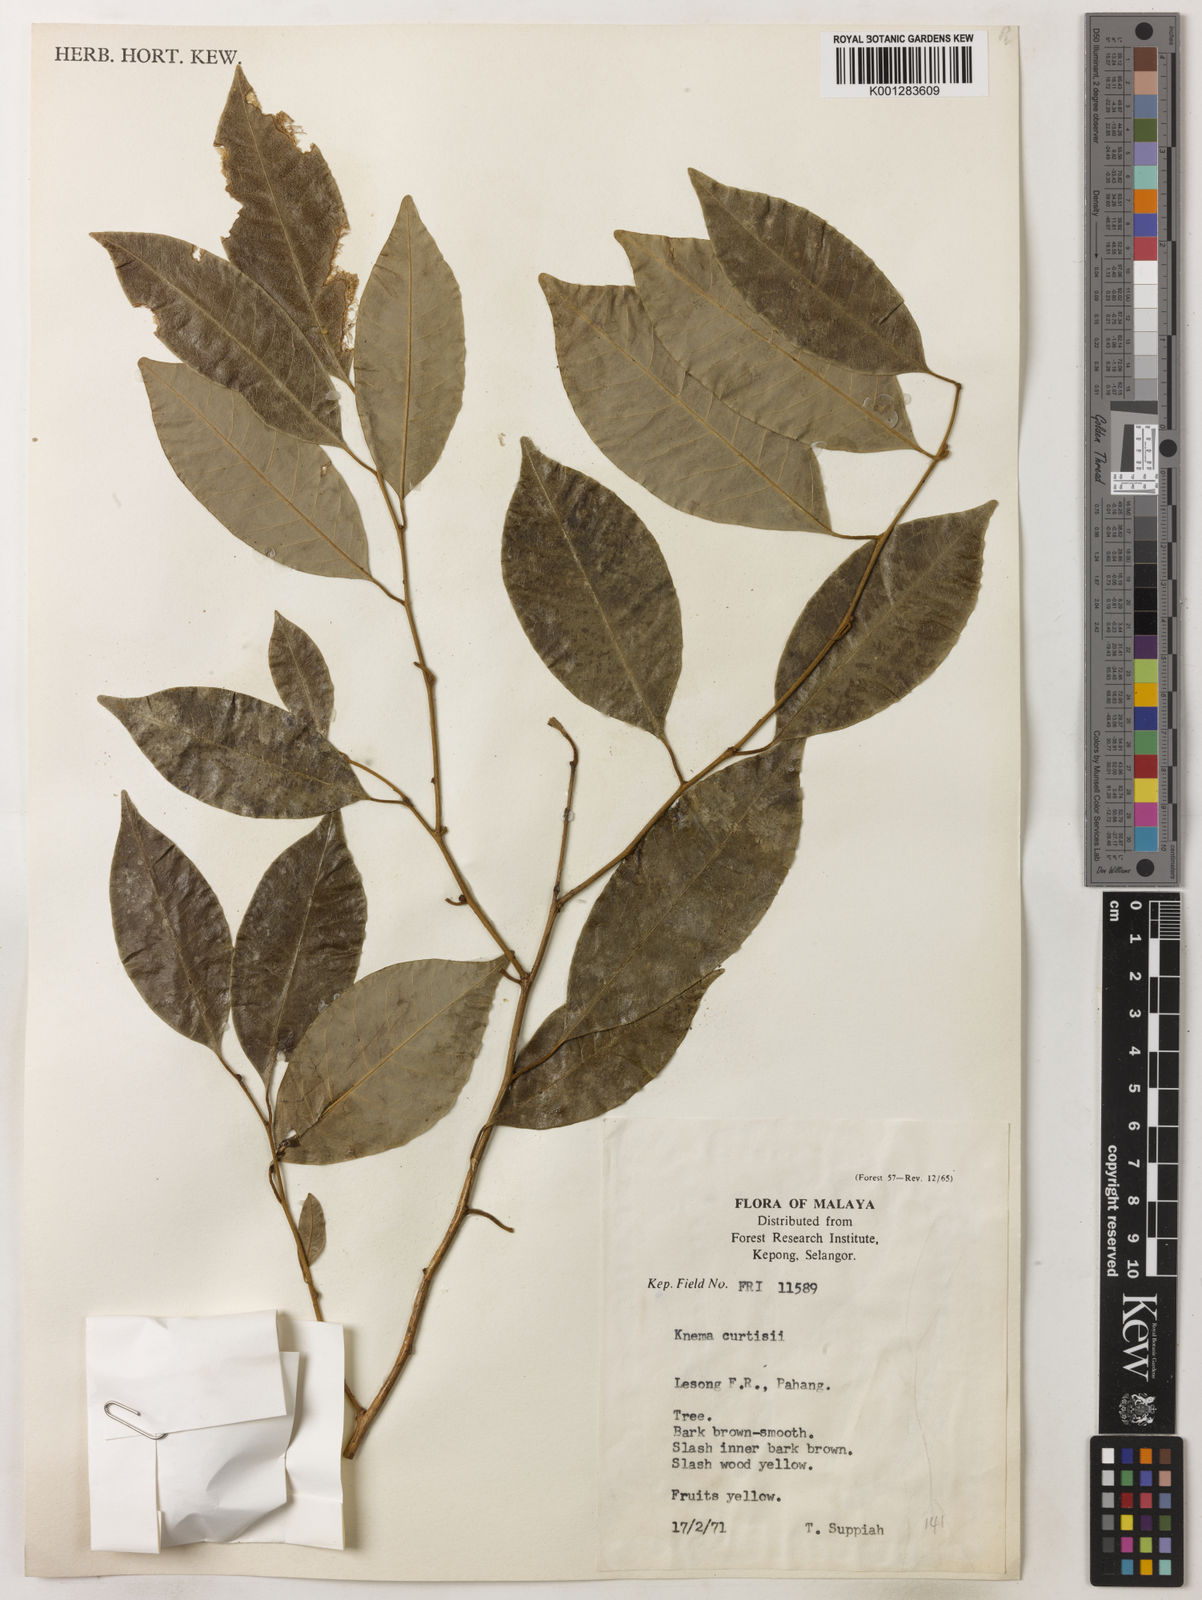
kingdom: Plantae
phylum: Tracheophyta
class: Magnoliopsida
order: Magnoliales
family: Myristicaceae
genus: Knema
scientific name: Knema curtisii
